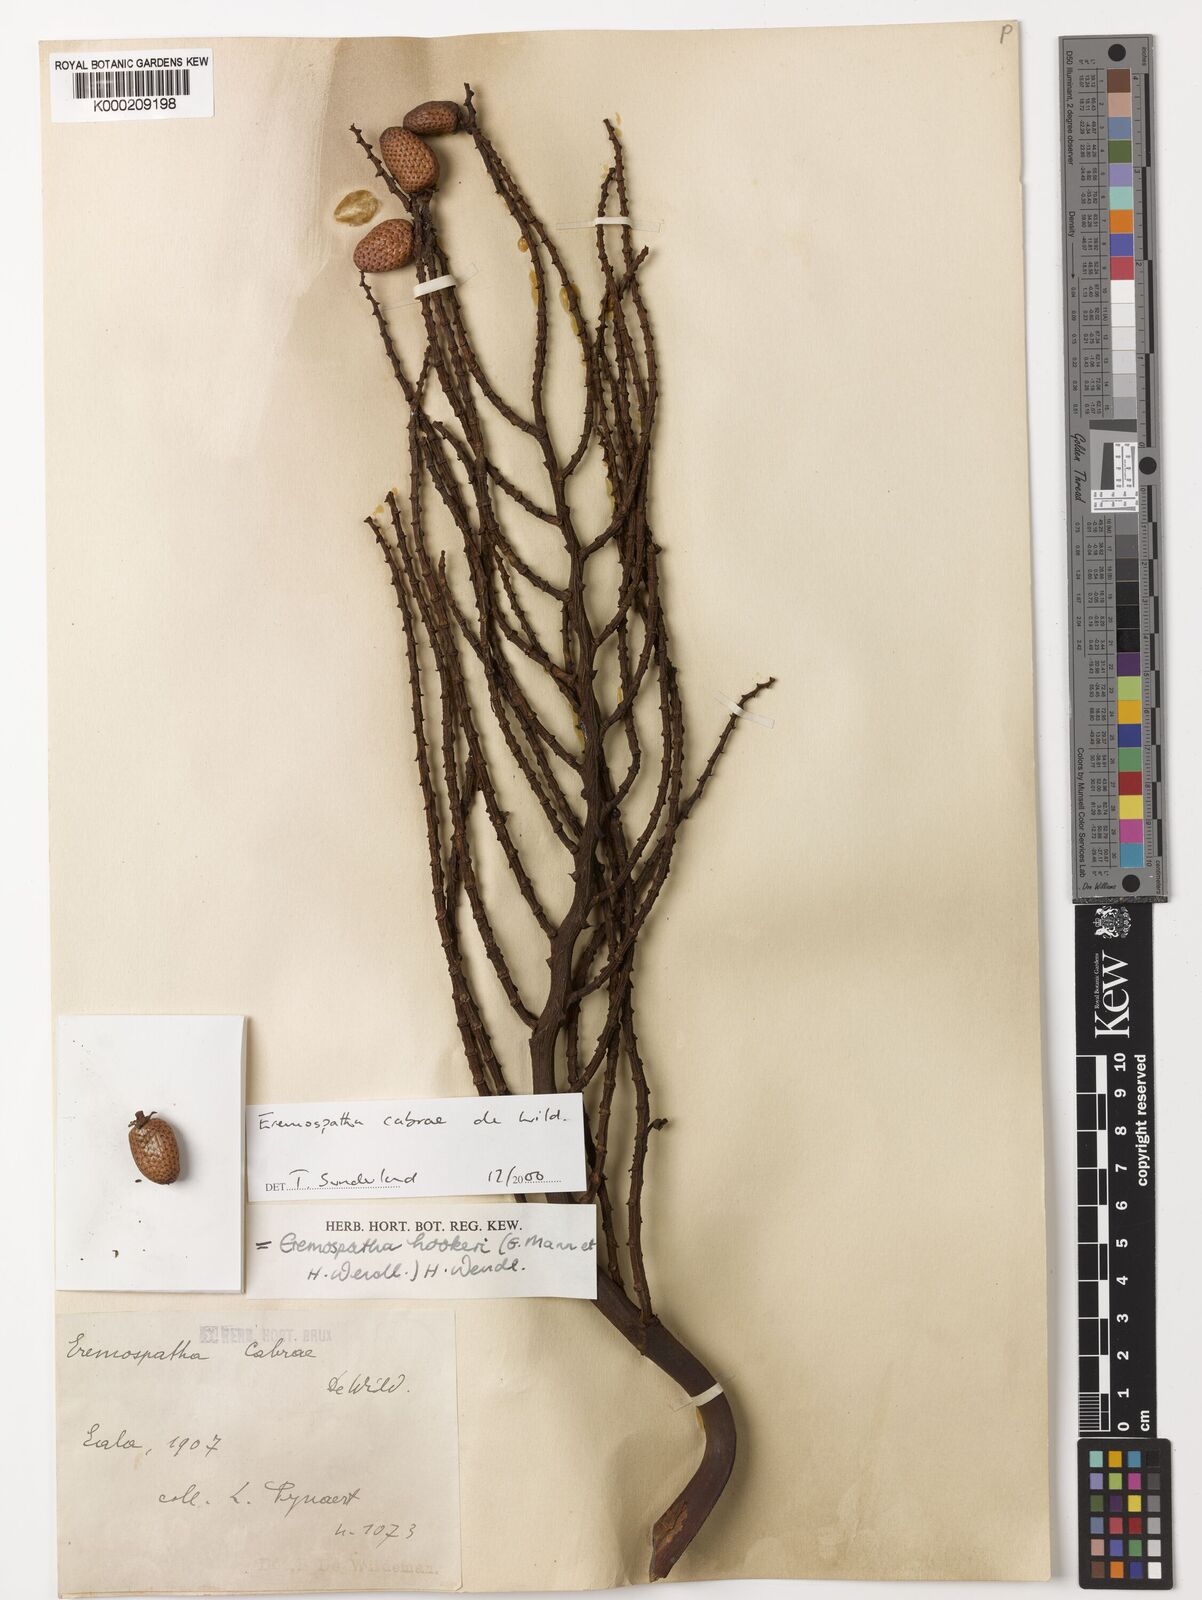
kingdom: Plantae
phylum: Tracheophyta
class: Liliopsida
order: Arecales
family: Arecaceae
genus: Eremospatha
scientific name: Eremospatha cabrae
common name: Rattan
